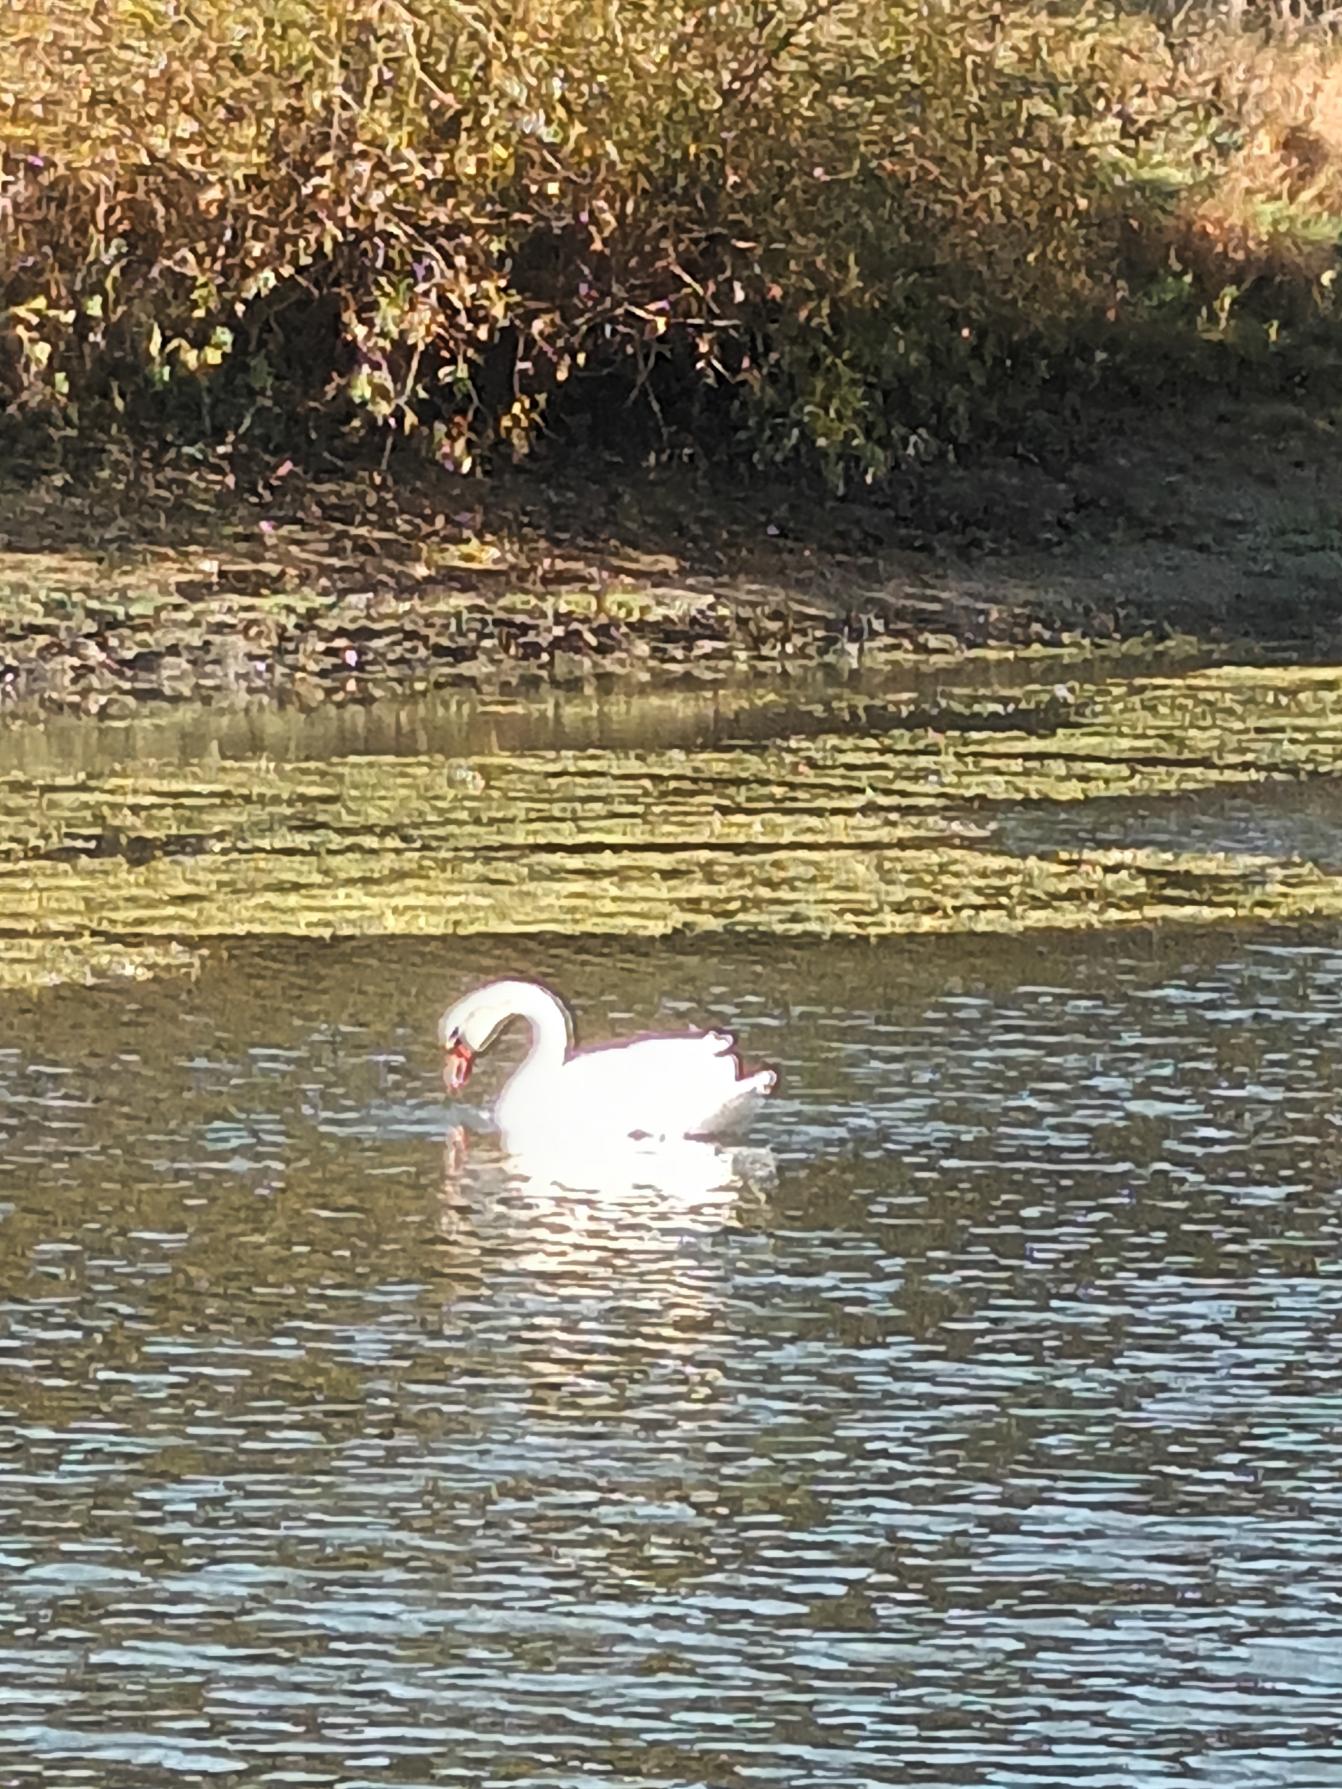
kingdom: Animalia
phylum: Chordata
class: Aves
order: Anseriformes
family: Anatidae
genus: Cygnus
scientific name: Cygnus olor
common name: Knopsvane
